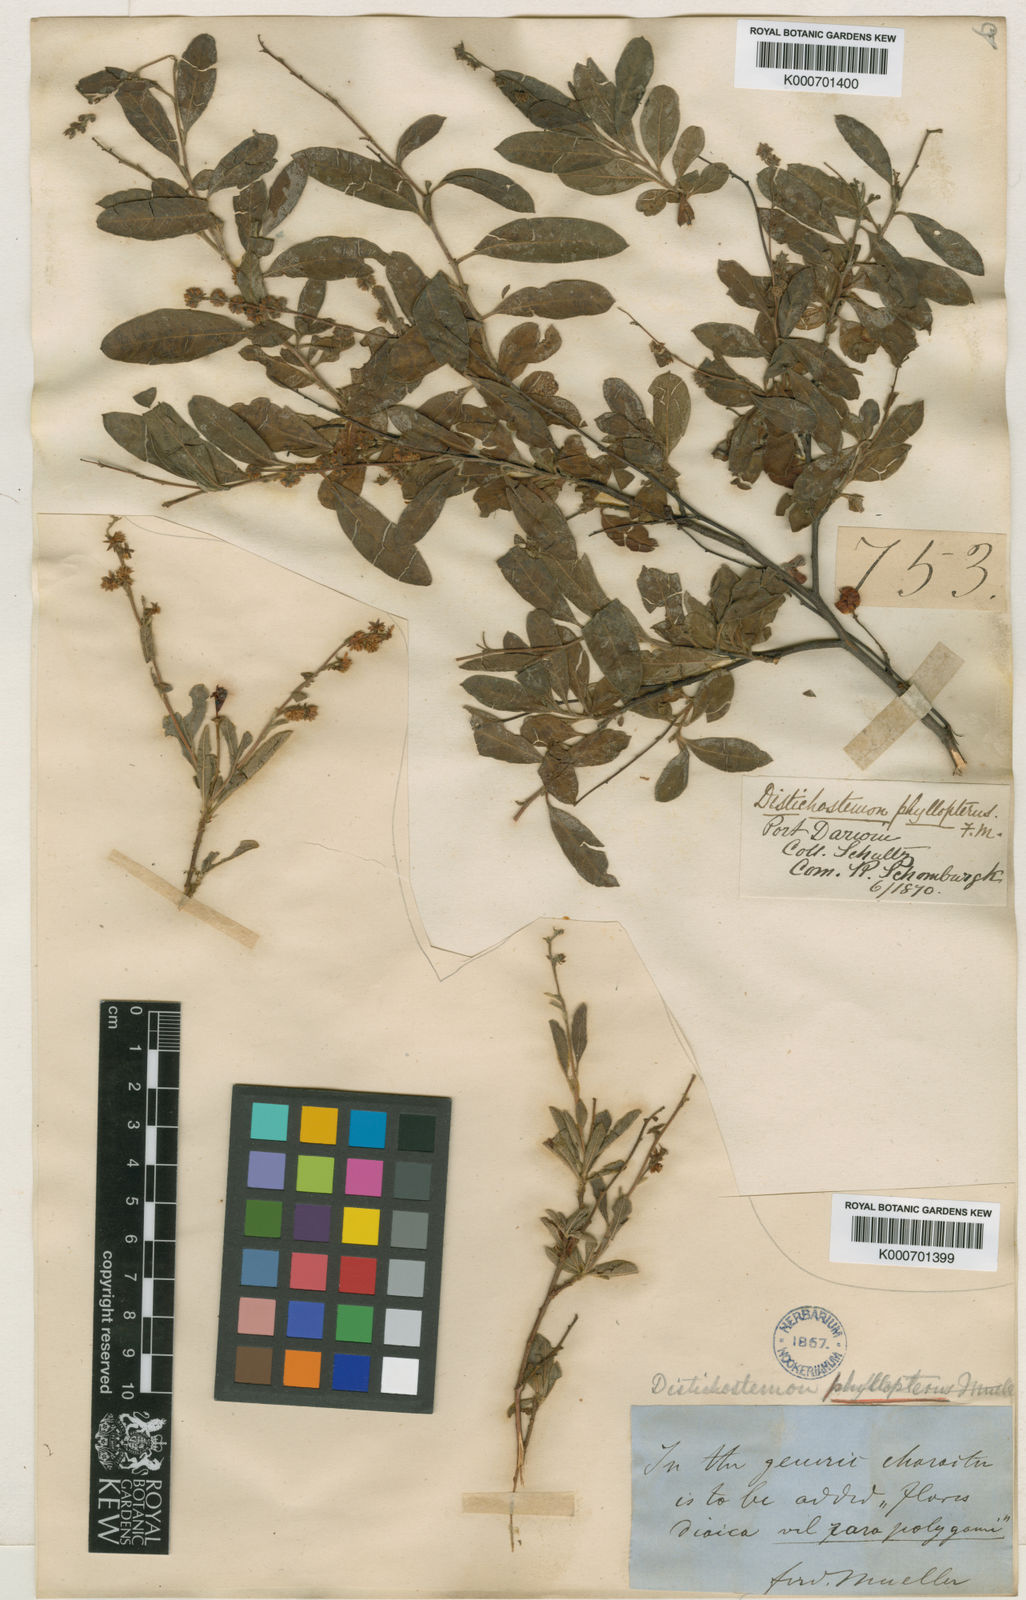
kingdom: Plantae
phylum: Tracheophyta
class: Magnoliopsida
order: Sapindales
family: Sapindaceae
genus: Dodonaea
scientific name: Dodonaea hispidula
